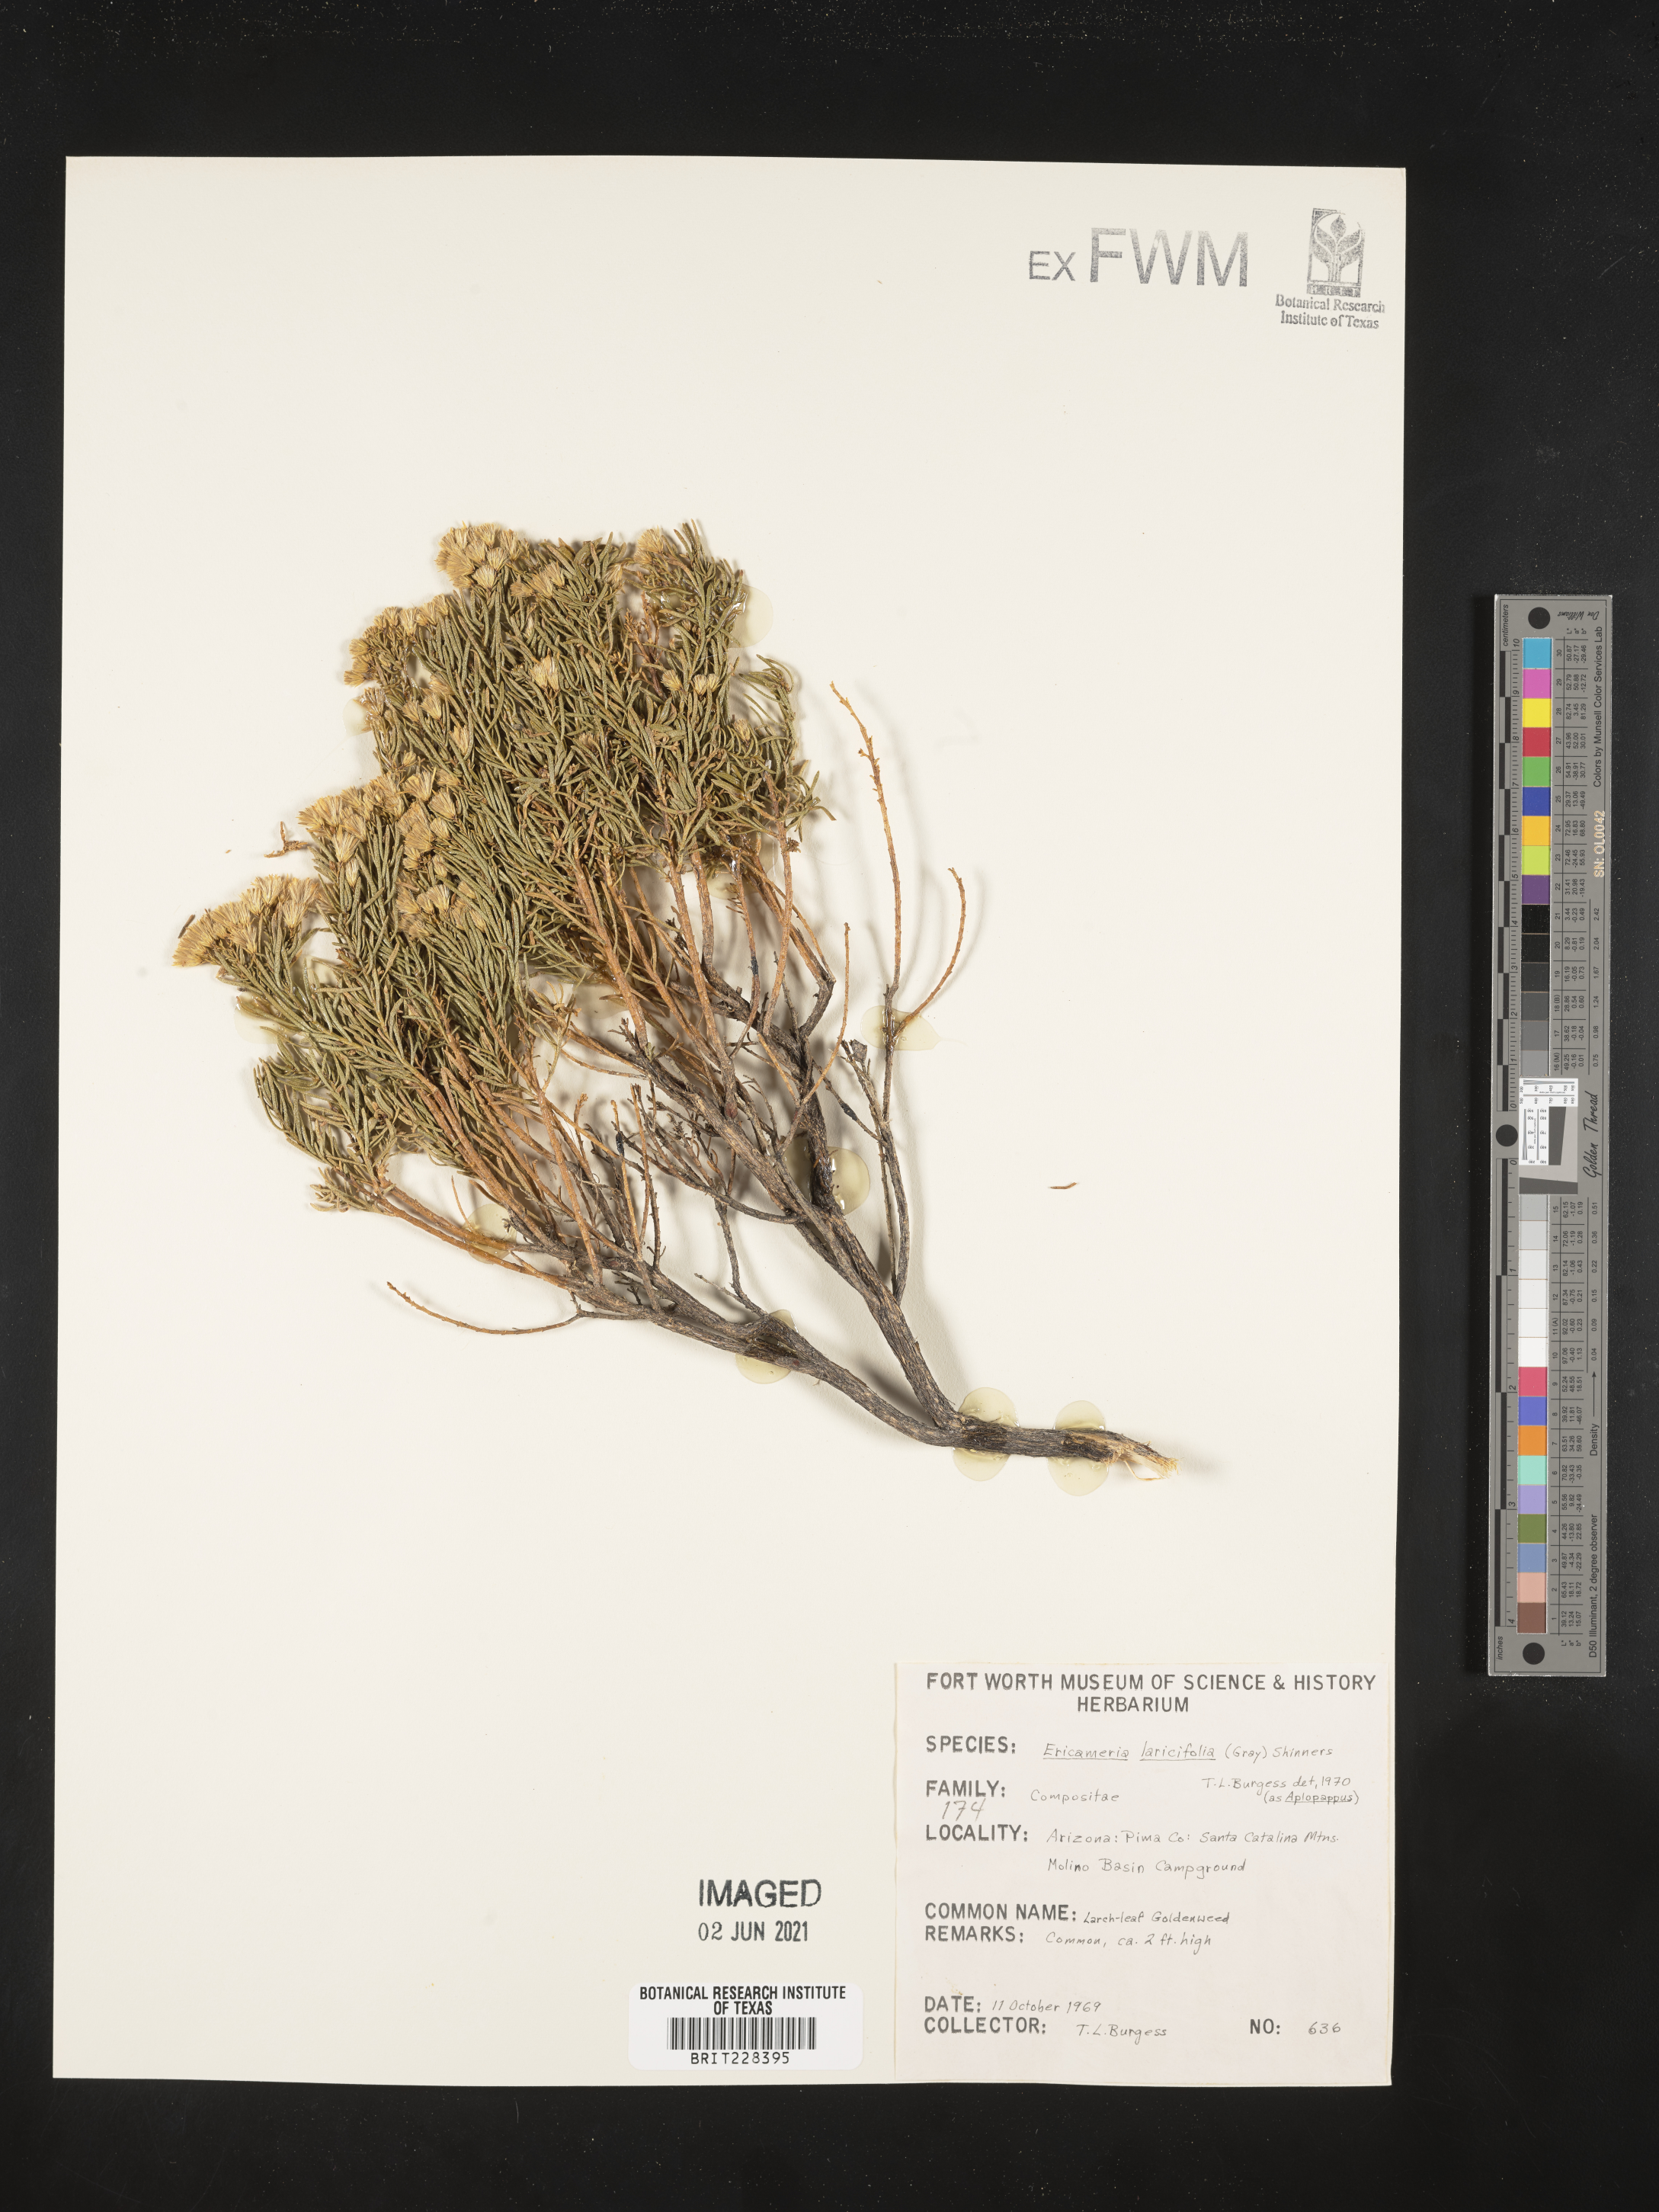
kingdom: Plantae
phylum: Tracheophyta
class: Magnoliopsida
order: Asterales
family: Asteraceae
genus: Ericameria
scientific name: Ericameria laricifolia
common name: Turpentine-bush
